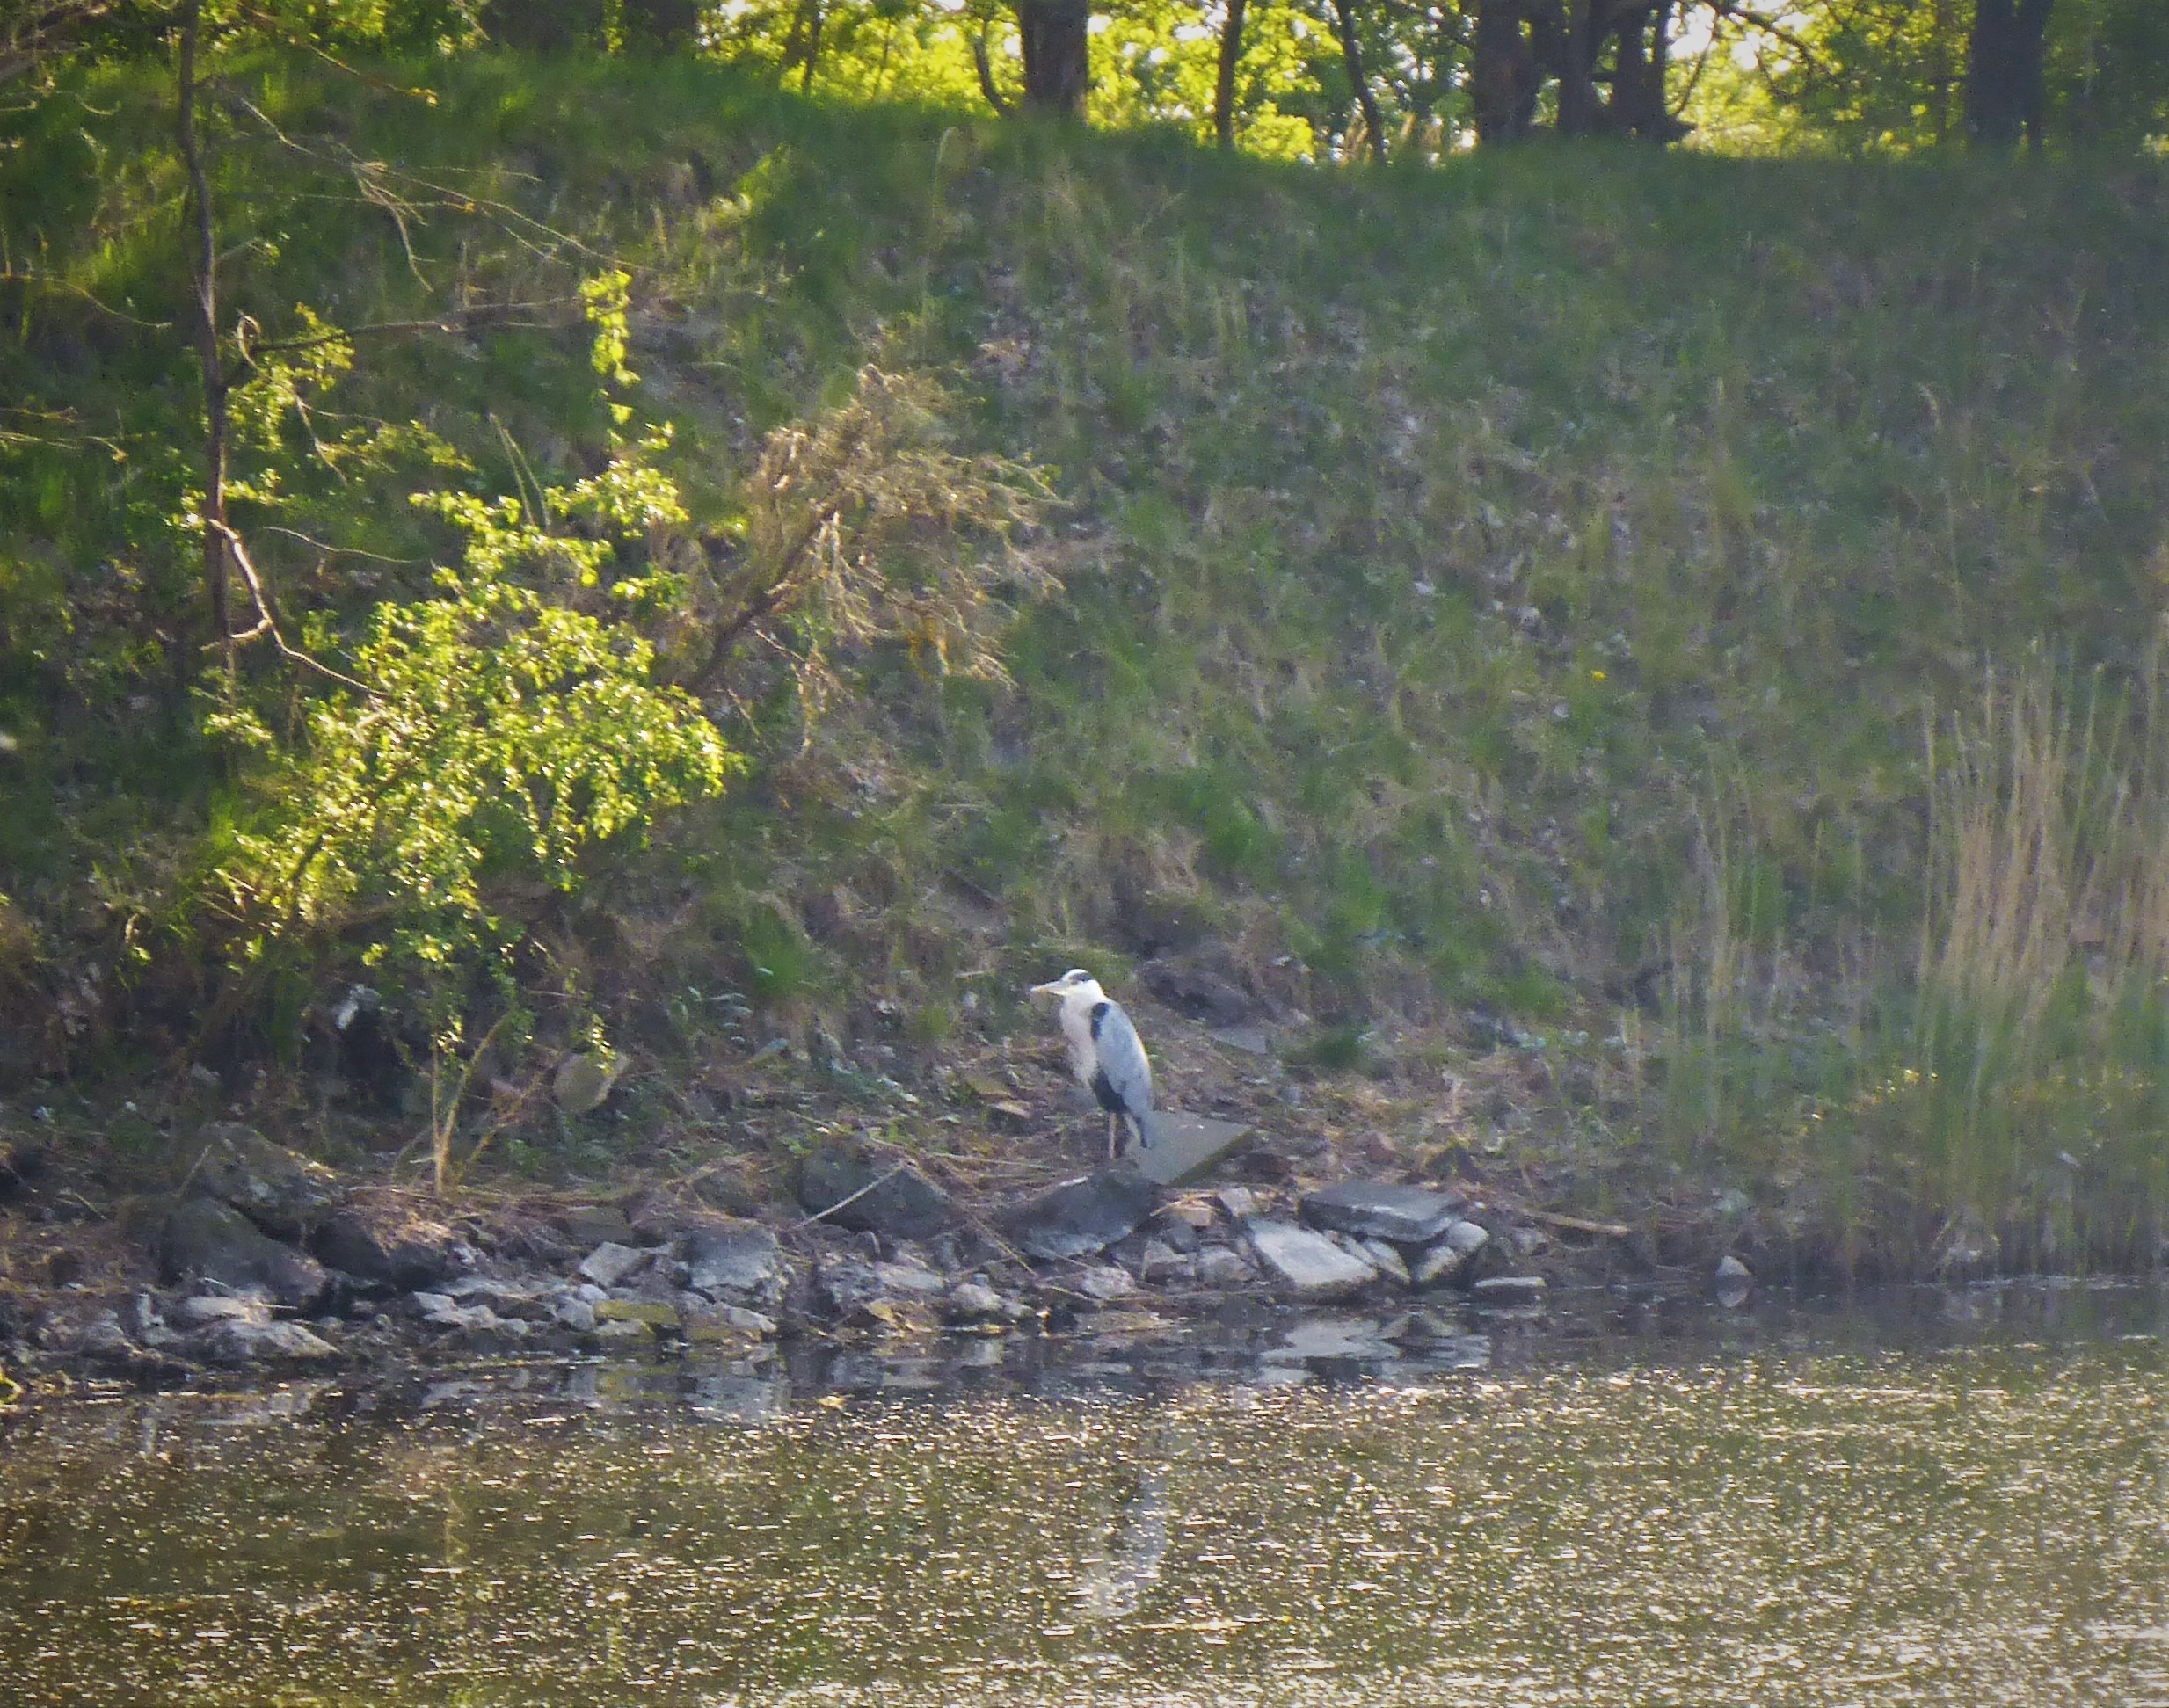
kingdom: Animalia
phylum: Chordata
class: Aves
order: Pelecaniformes
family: Ardeidae
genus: Ardea
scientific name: Ardea cinerea
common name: Fiskehejre
